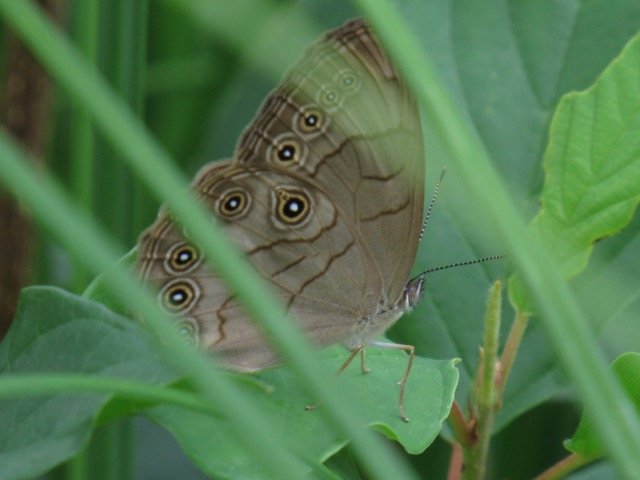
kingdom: Animalia
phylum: Arthropoda
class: Insecta
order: Lepidoptera
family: Nymphalidae
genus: Lethe
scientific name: Lethe eurydice
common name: Appalachian Eyed Brown
